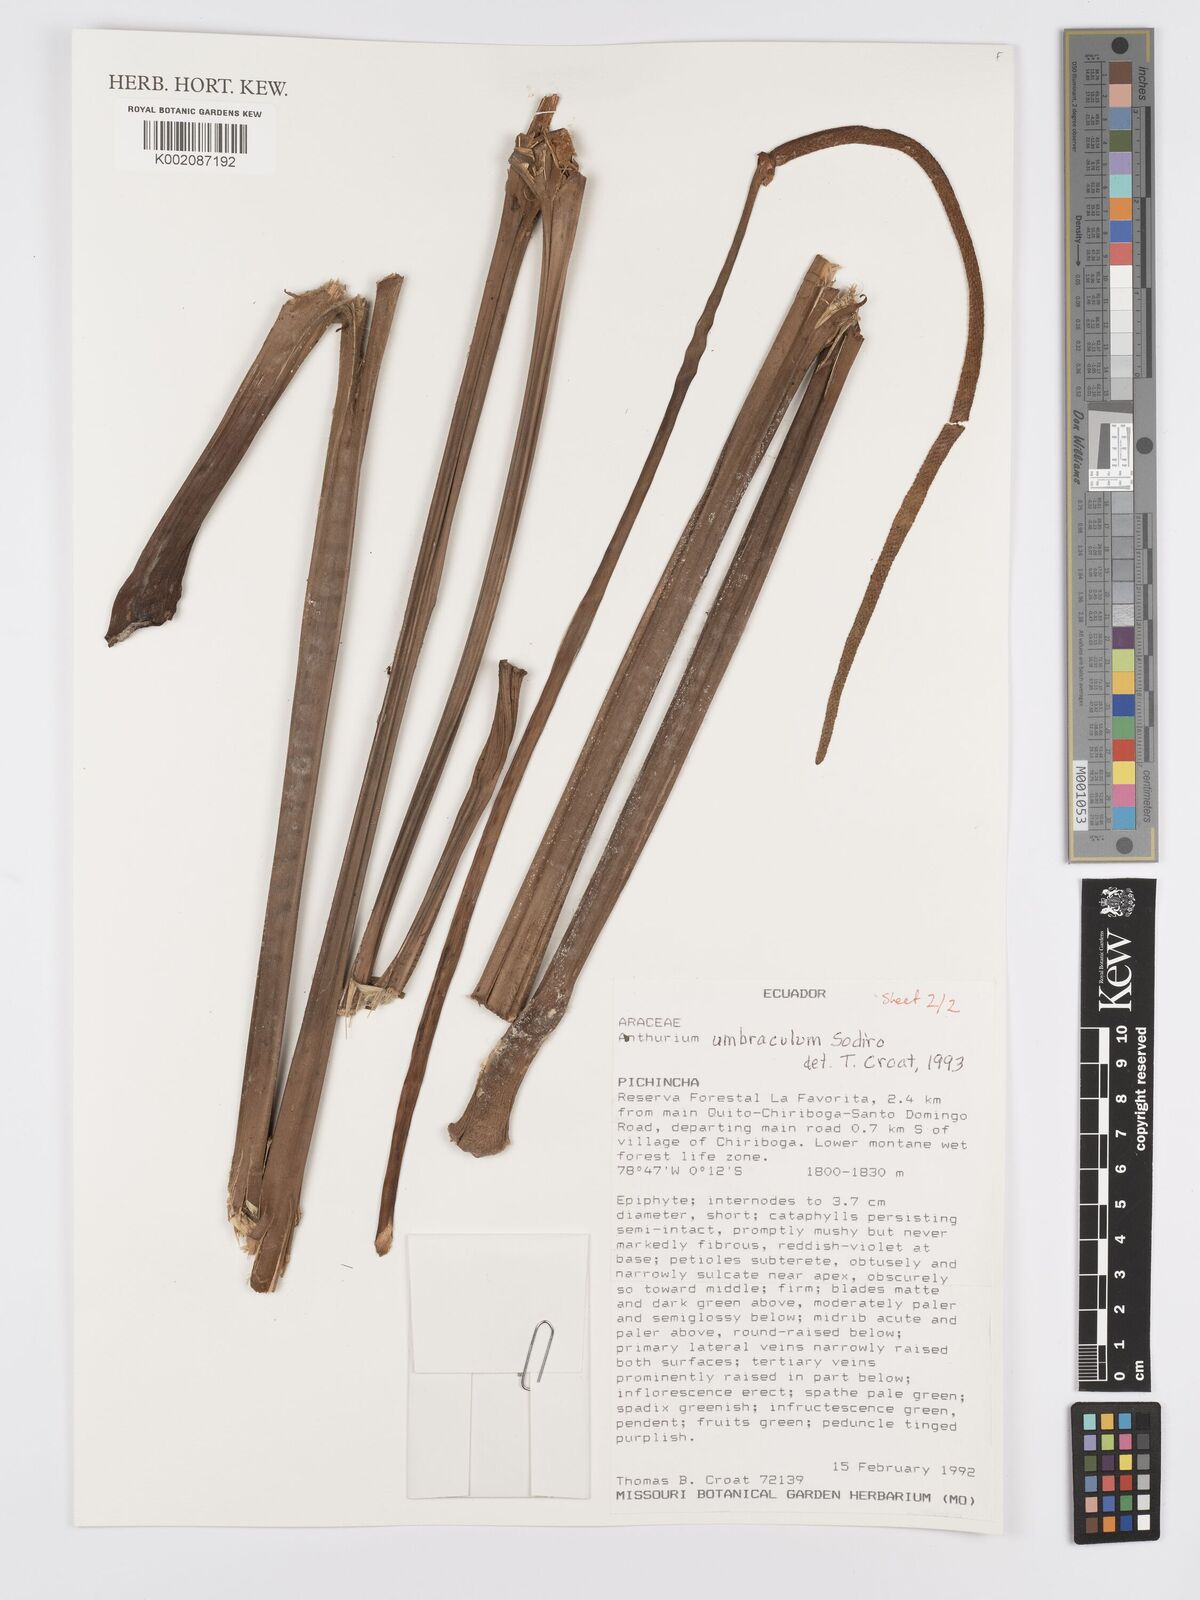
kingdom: Plantae
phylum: Tracheophyta
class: Liliopsida
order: Alismatales
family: Araceae
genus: Anthurium
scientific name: Anthurium umbraculum
